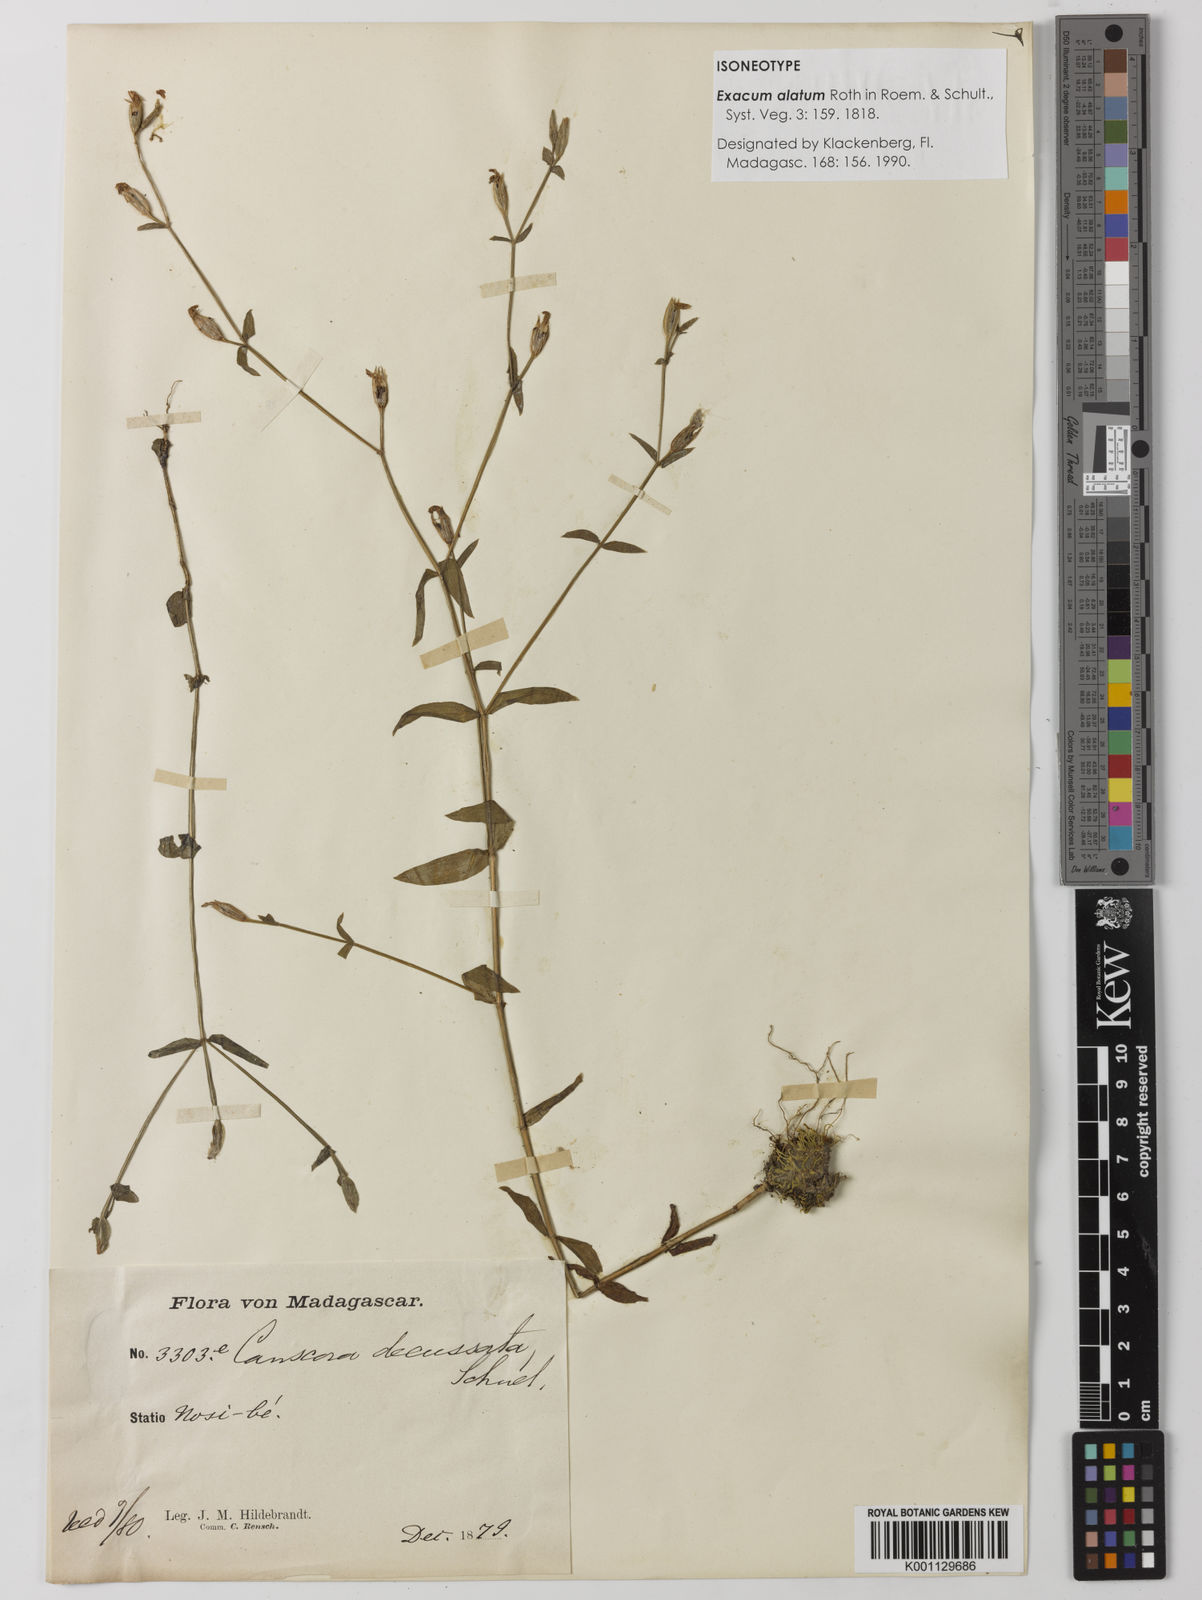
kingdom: Plantae
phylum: Tracheophyta
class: Magnoliopsida
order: Gentianales
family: Gentianaceae
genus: Canscora
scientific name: Canscora alata
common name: Canscora
